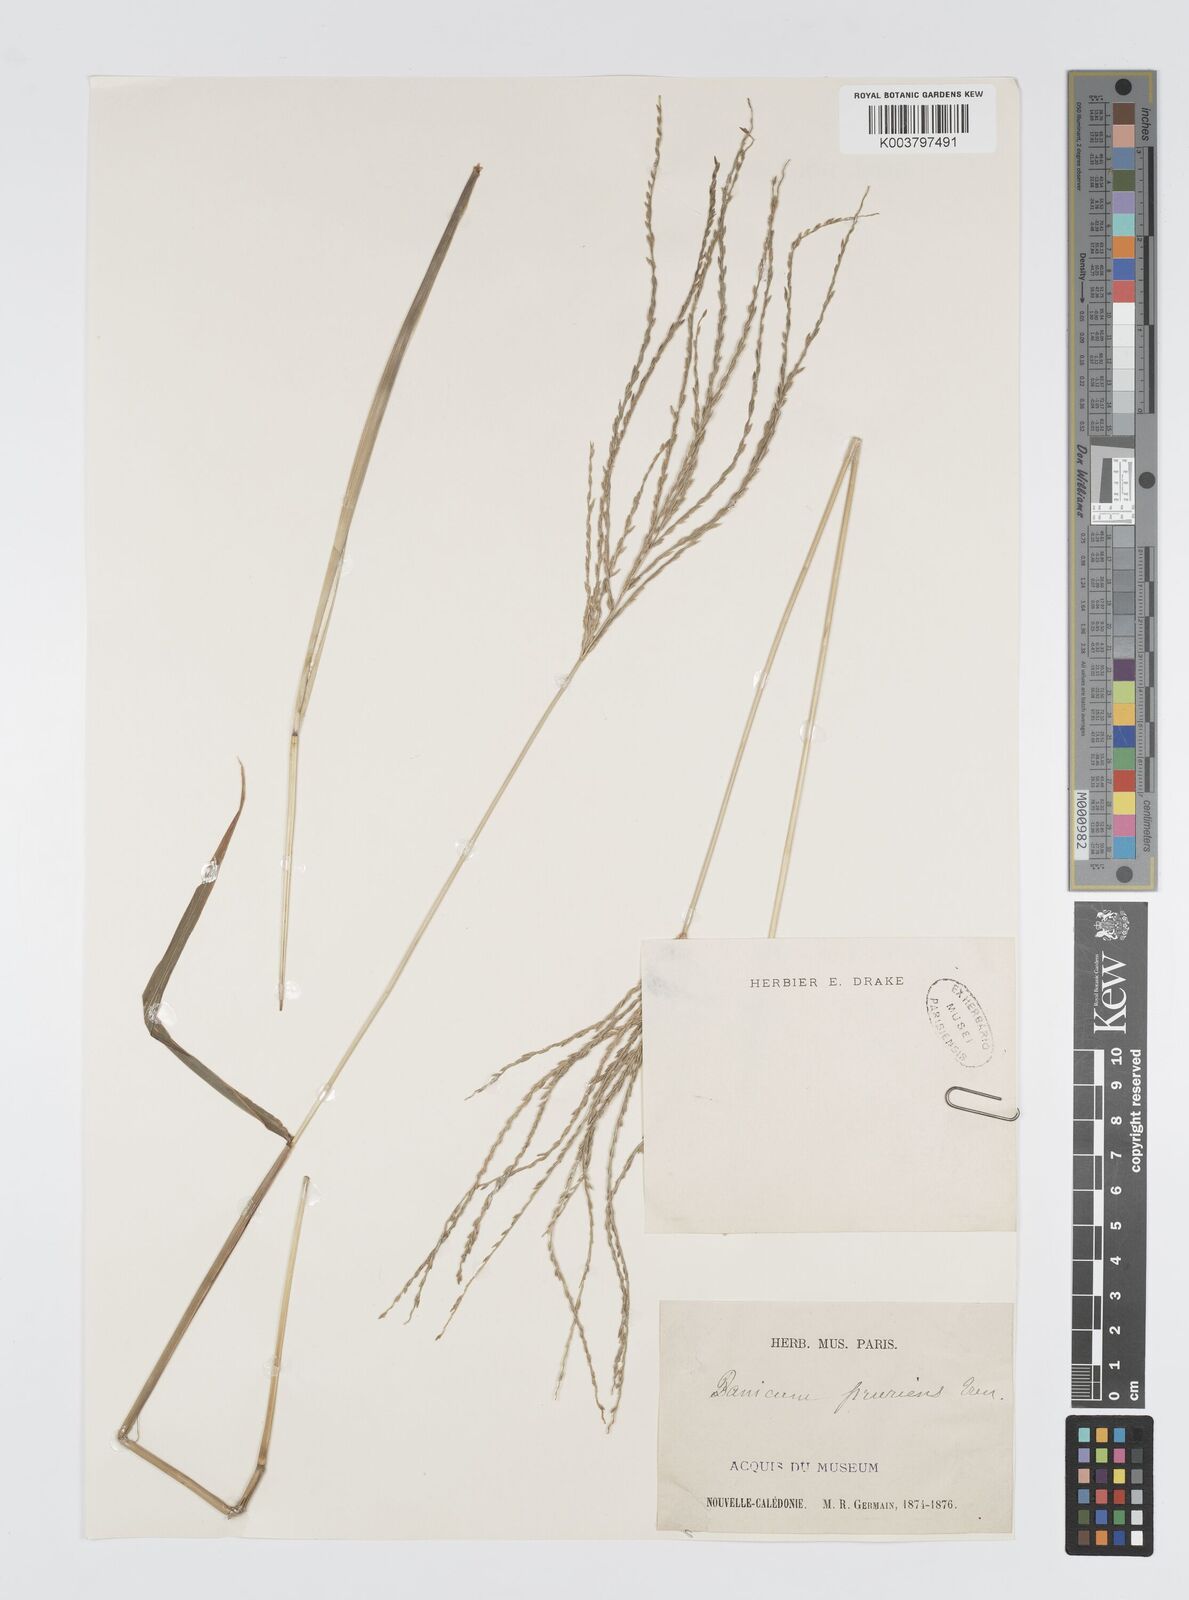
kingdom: Plantae
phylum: Tracheophyta
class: Liliopsida
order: Poales
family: Poaceae
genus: Digitaria
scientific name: Digitaria setigera
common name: East indian crabgrass
